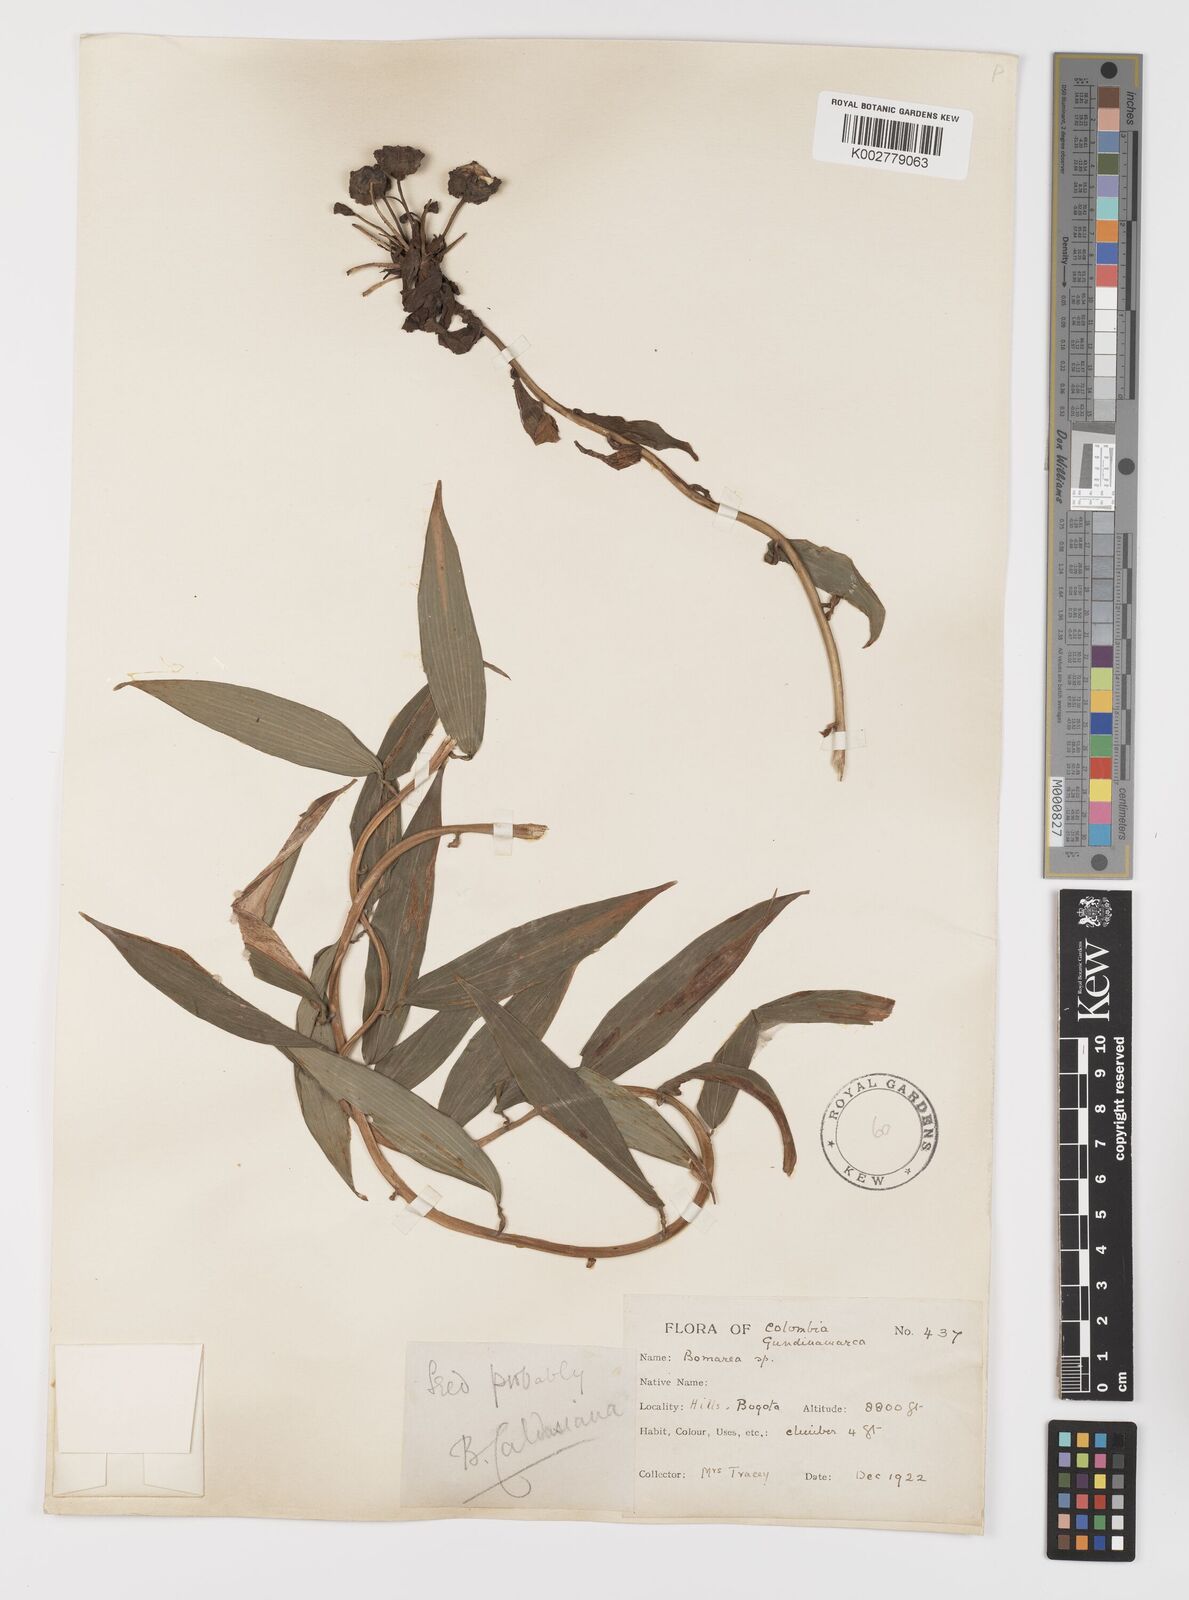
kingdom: Plantae
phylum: Tracheophyta
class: Liliopsida
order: Liliales
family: Alstroemeriaceae
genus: Bomarea
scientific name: Bomarea
